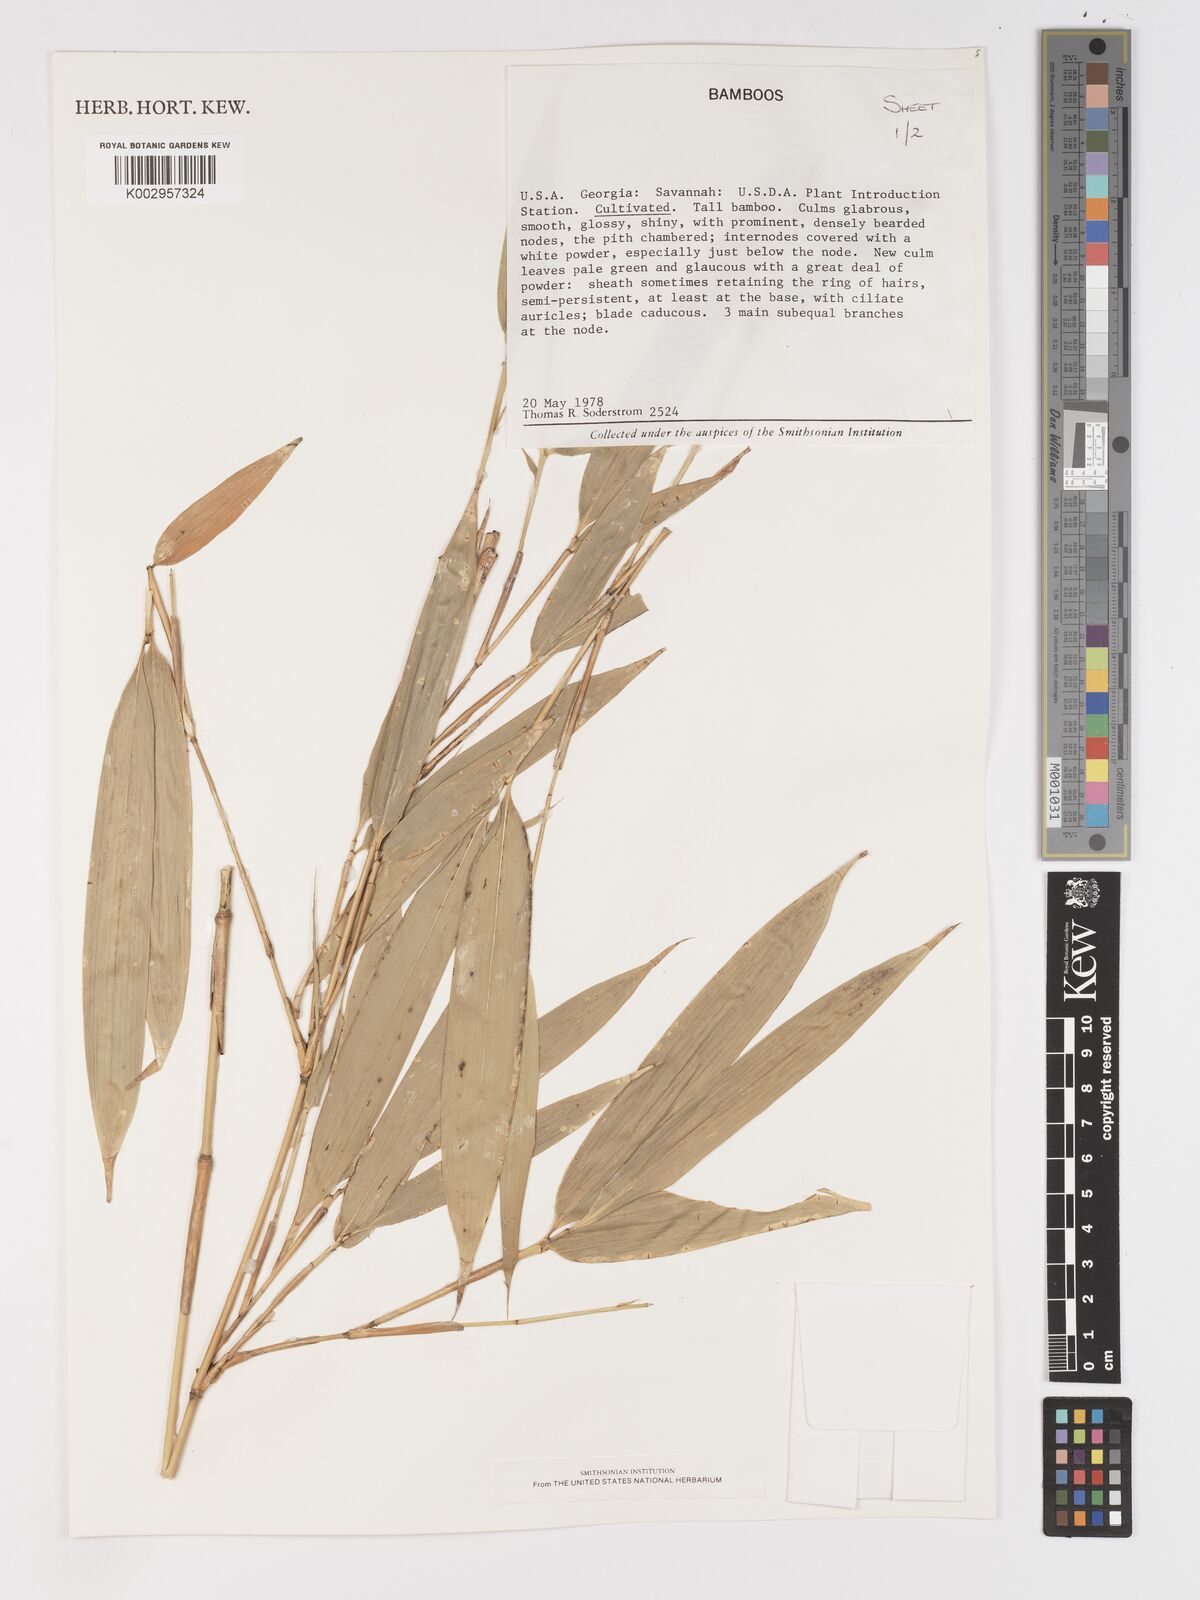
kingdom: Plantae
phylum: Tracheophyta
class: Liliopsida
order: Poales
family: Poaceae
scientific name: Poaceae
